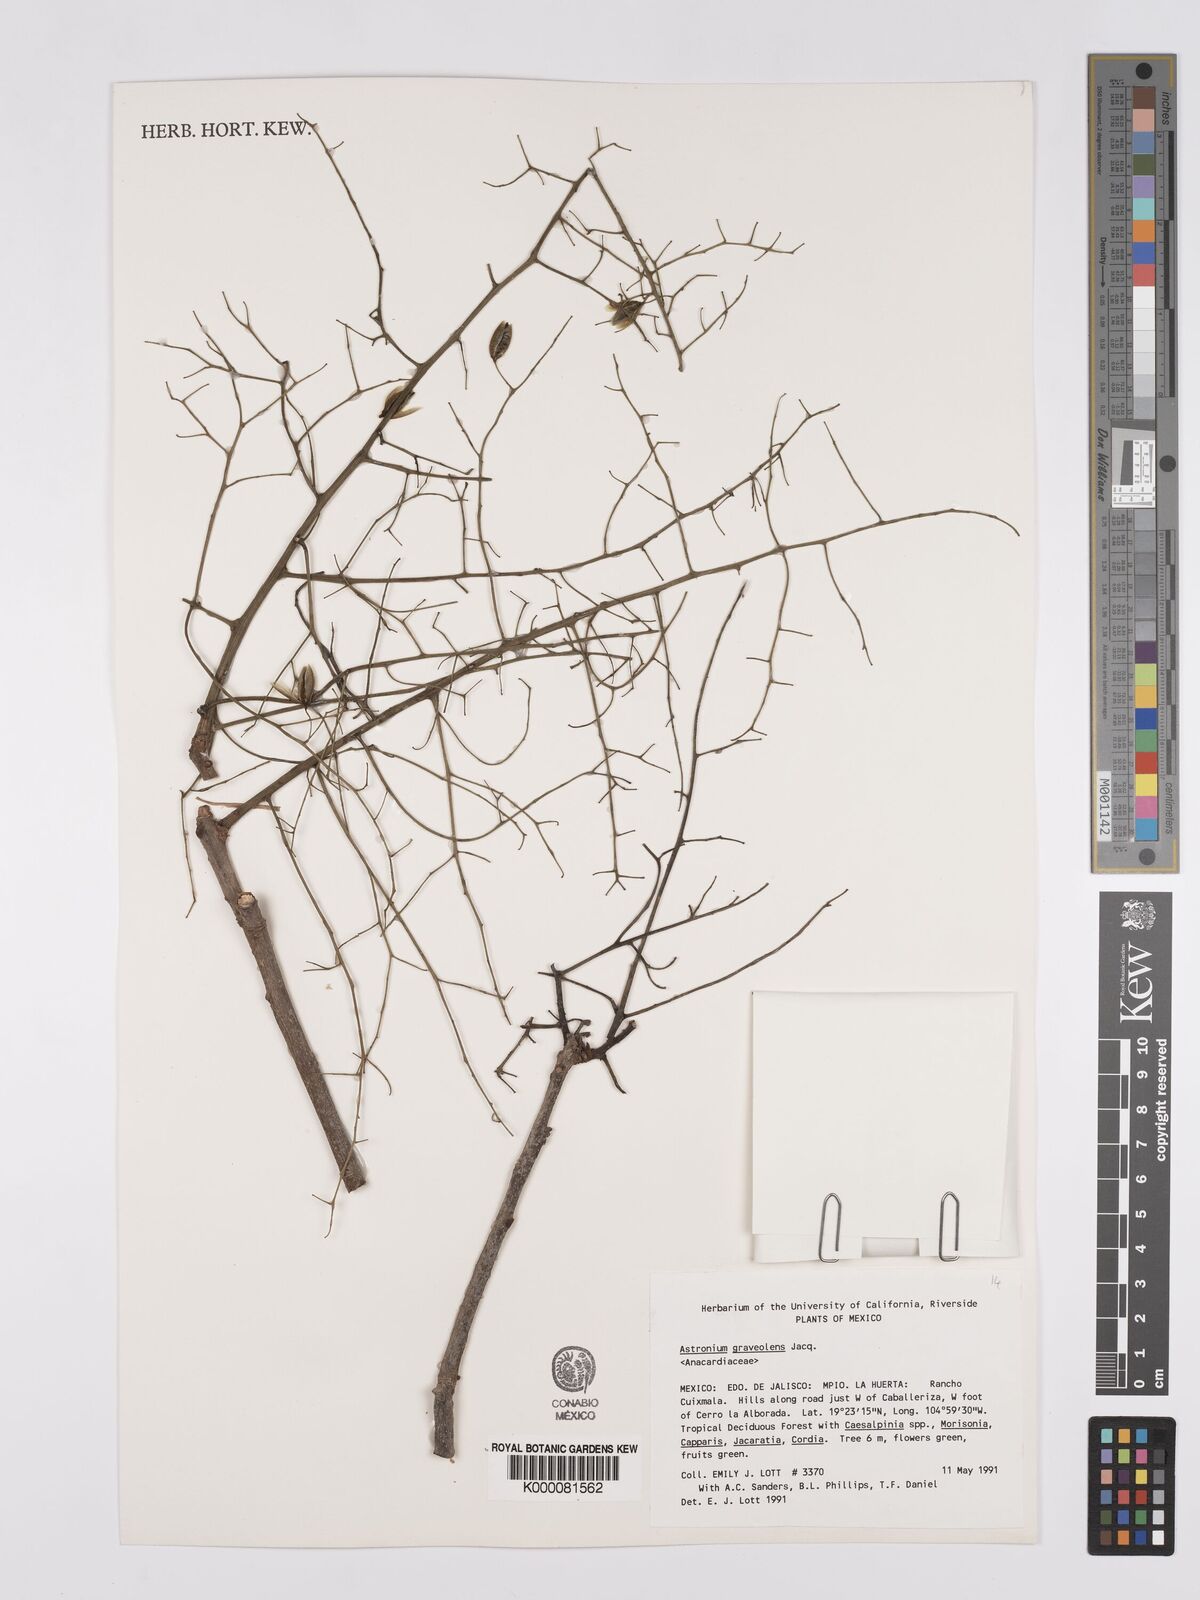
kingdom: Plantae
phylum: Tracheophyta
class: Magnoliopsida
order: Sapindales
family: Anacardiaceae
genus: Astronium
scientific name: Astronium graveolens
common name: Glassywood
